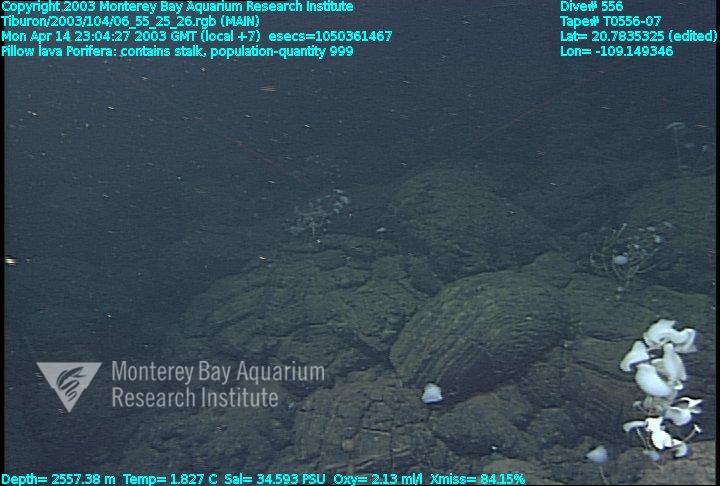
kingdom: Animalia
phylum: Porifera
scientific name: Porifera
